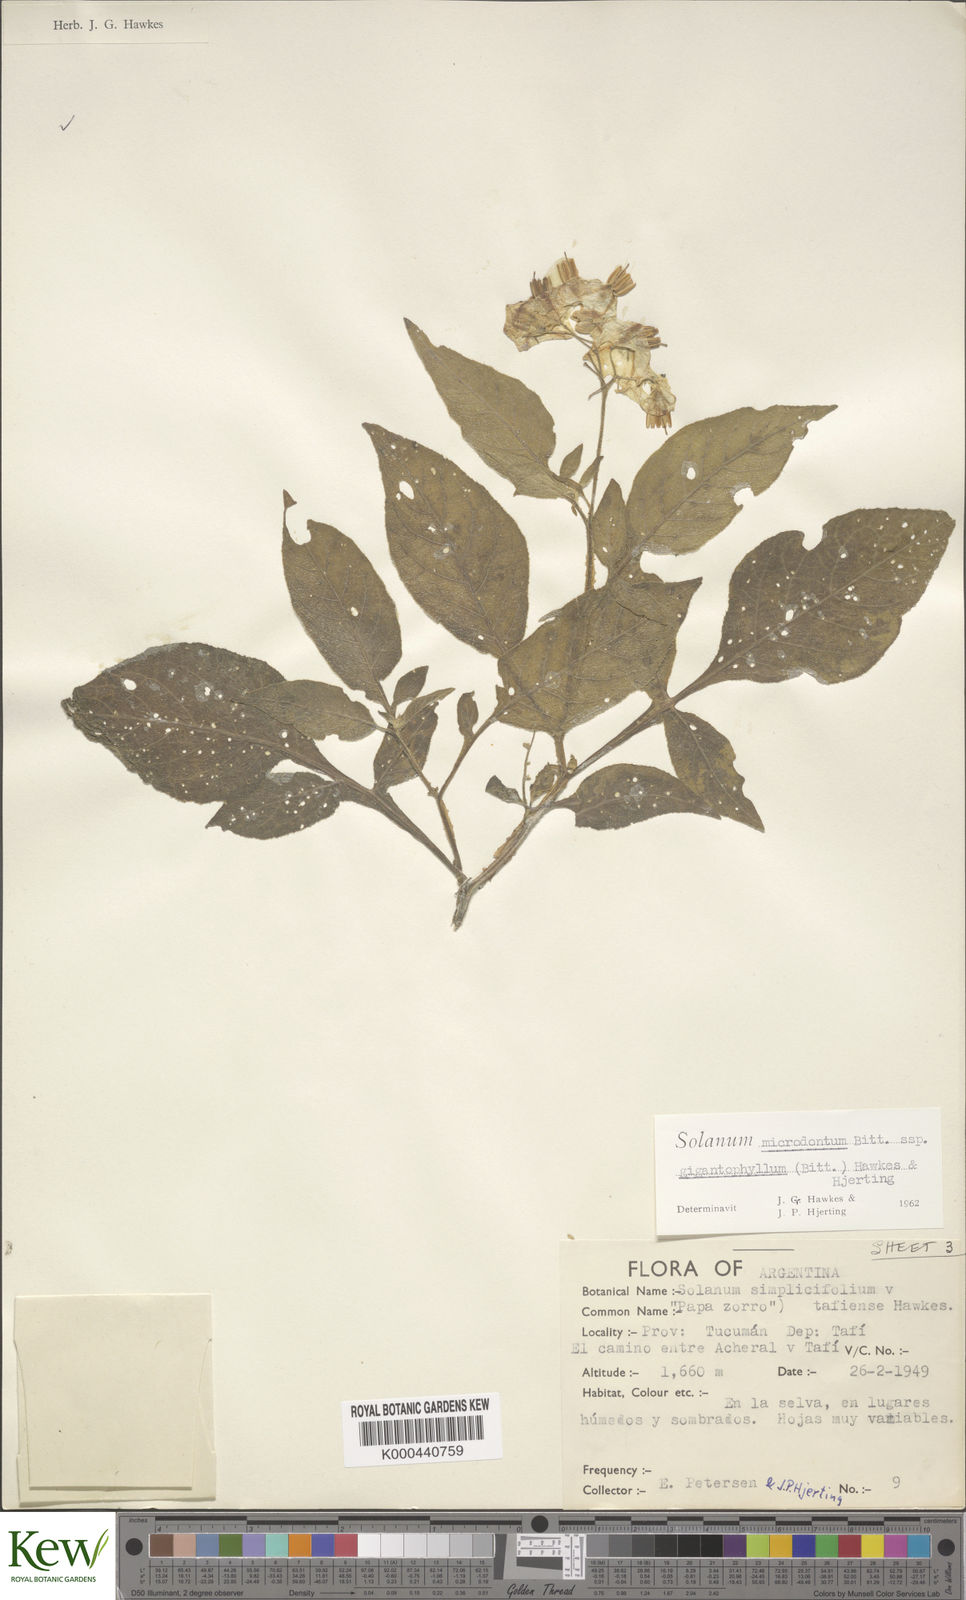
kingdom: Plantae
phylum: Tracheophyta
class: Magnoliopsida
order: Solanales
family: Solanaceae
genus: Solanum
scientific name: Solanum microdontum
